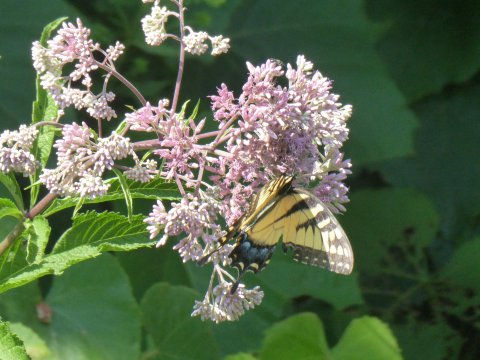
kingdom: Animalia
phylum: Arthropoda
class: Insecta
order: Lepidoptera
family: Papilionidae
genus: Pterourus
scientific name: Pterourus
